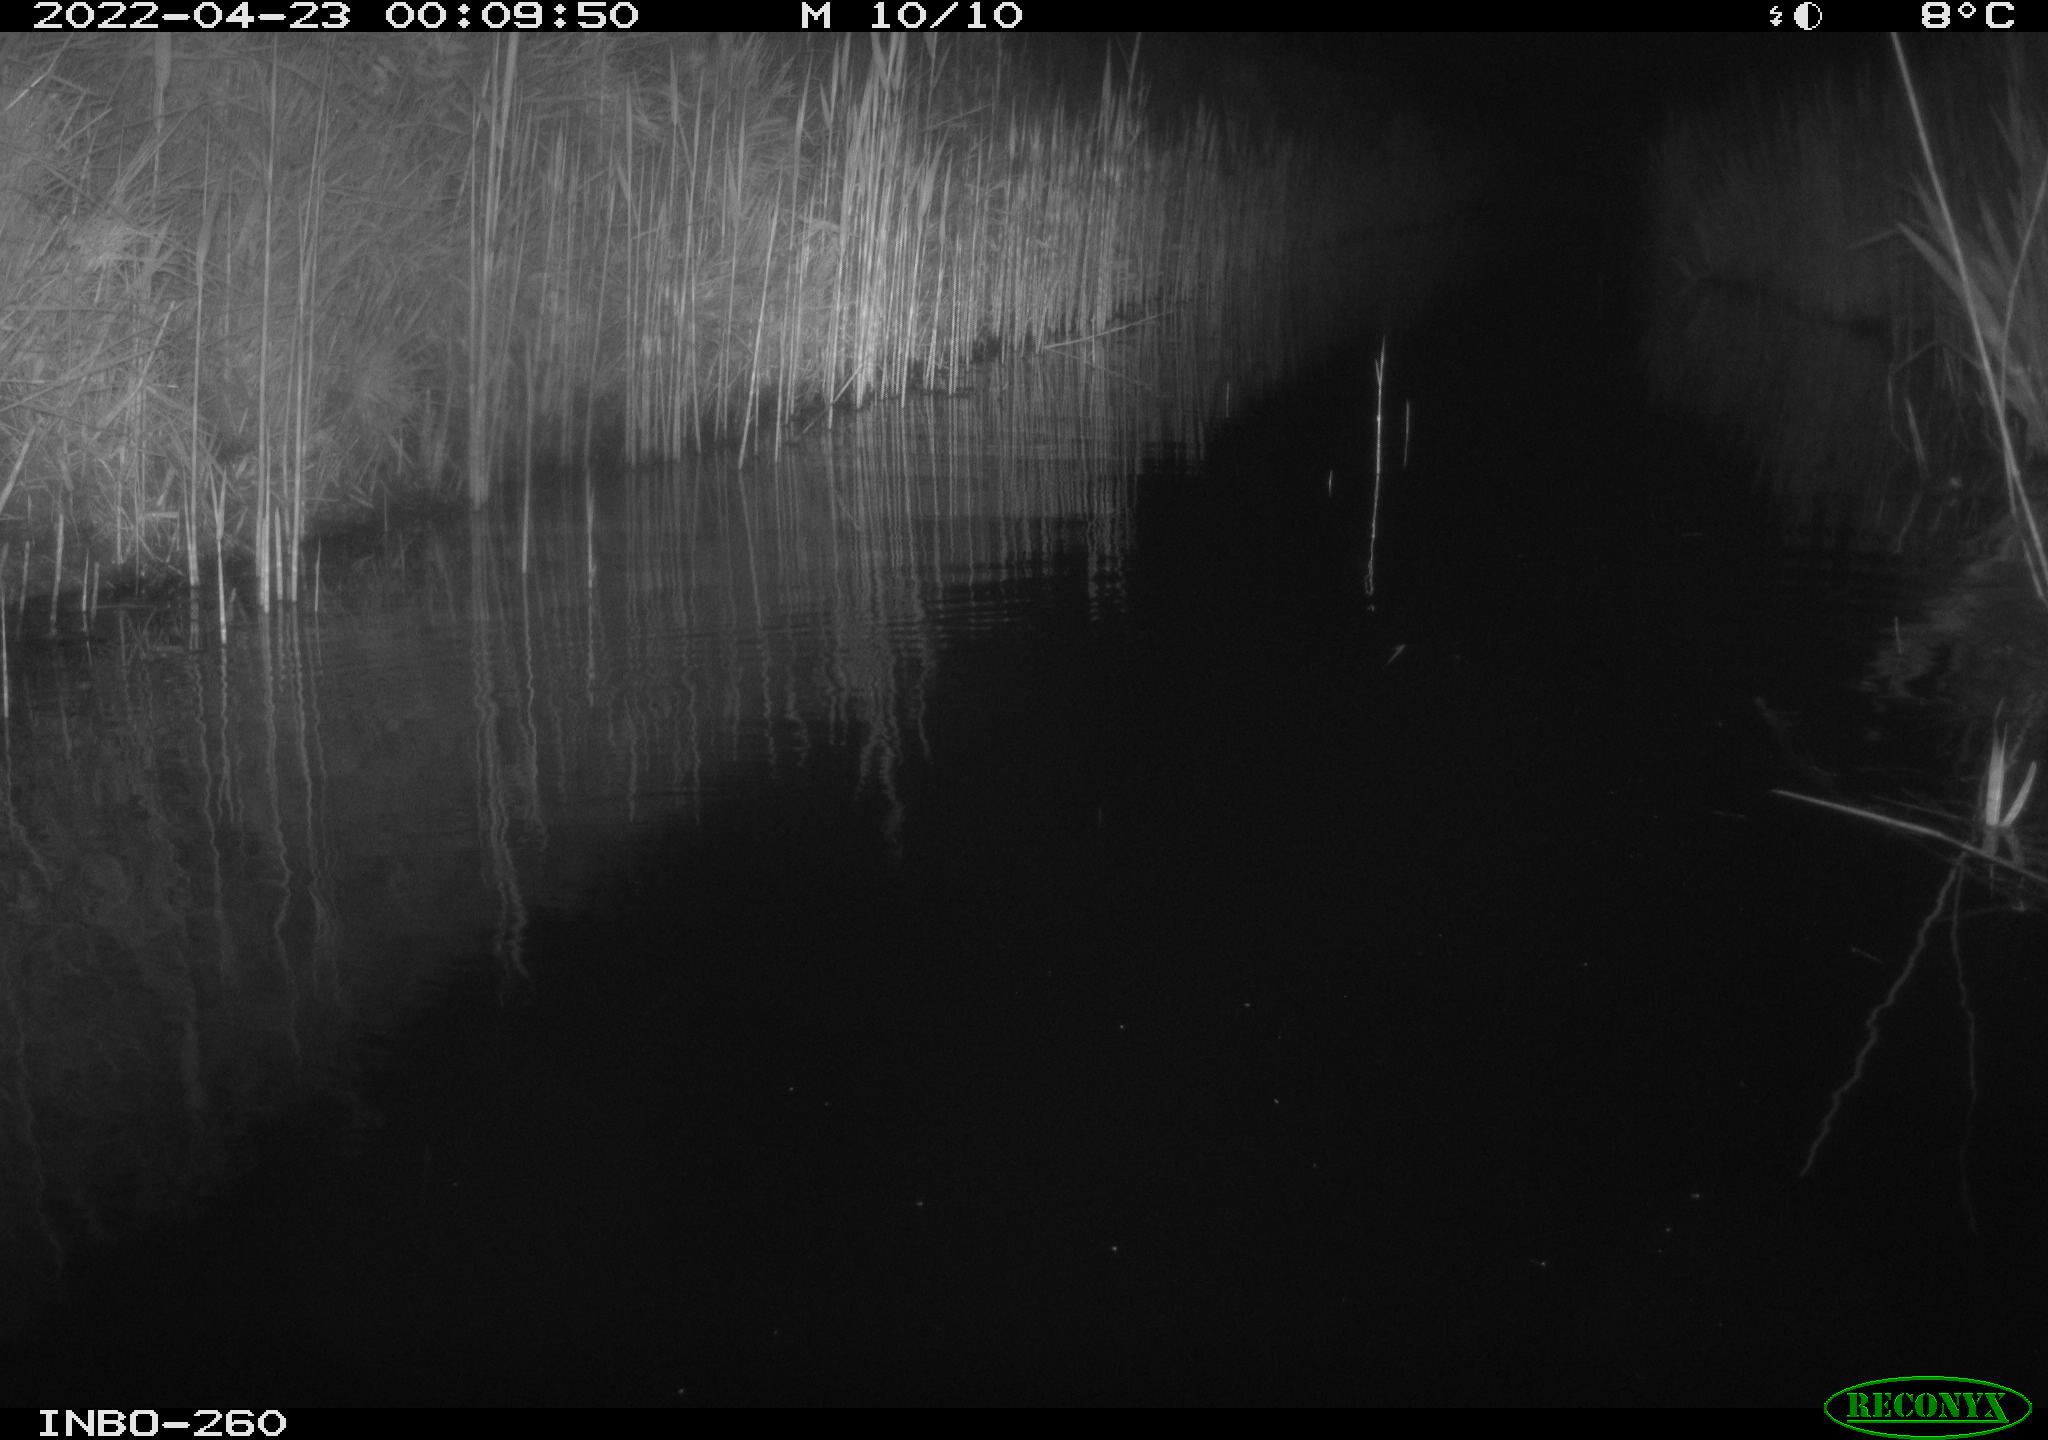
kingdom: Animalia
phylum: Chordata
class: Mammalia
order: Rodentia
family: Muridae
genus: Rattus
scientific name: Rattus norvegicus
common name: Brown rat
